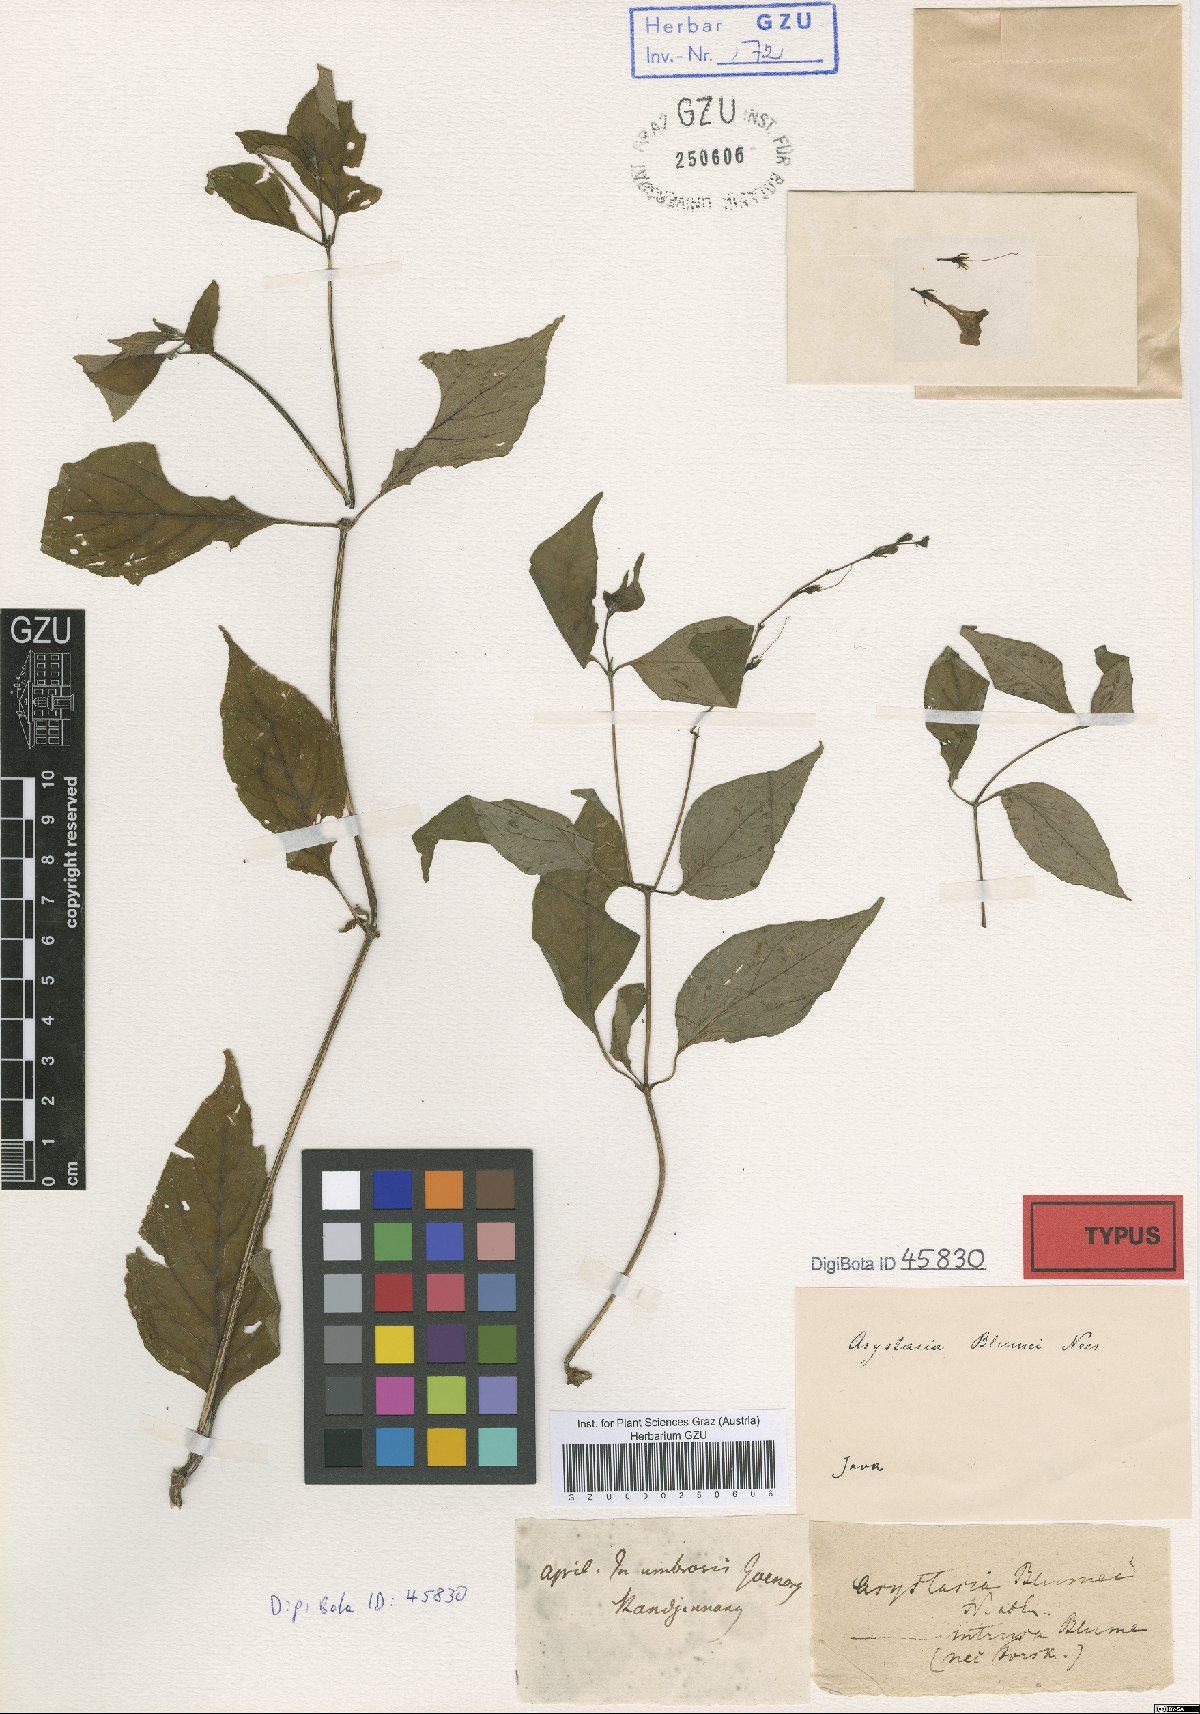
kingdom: Plantae
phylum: Tracheophyta
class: Magnoliopsida
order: Lamiales
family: Acanthaceae
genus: Asystasia
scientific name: Asystasia nemorum
